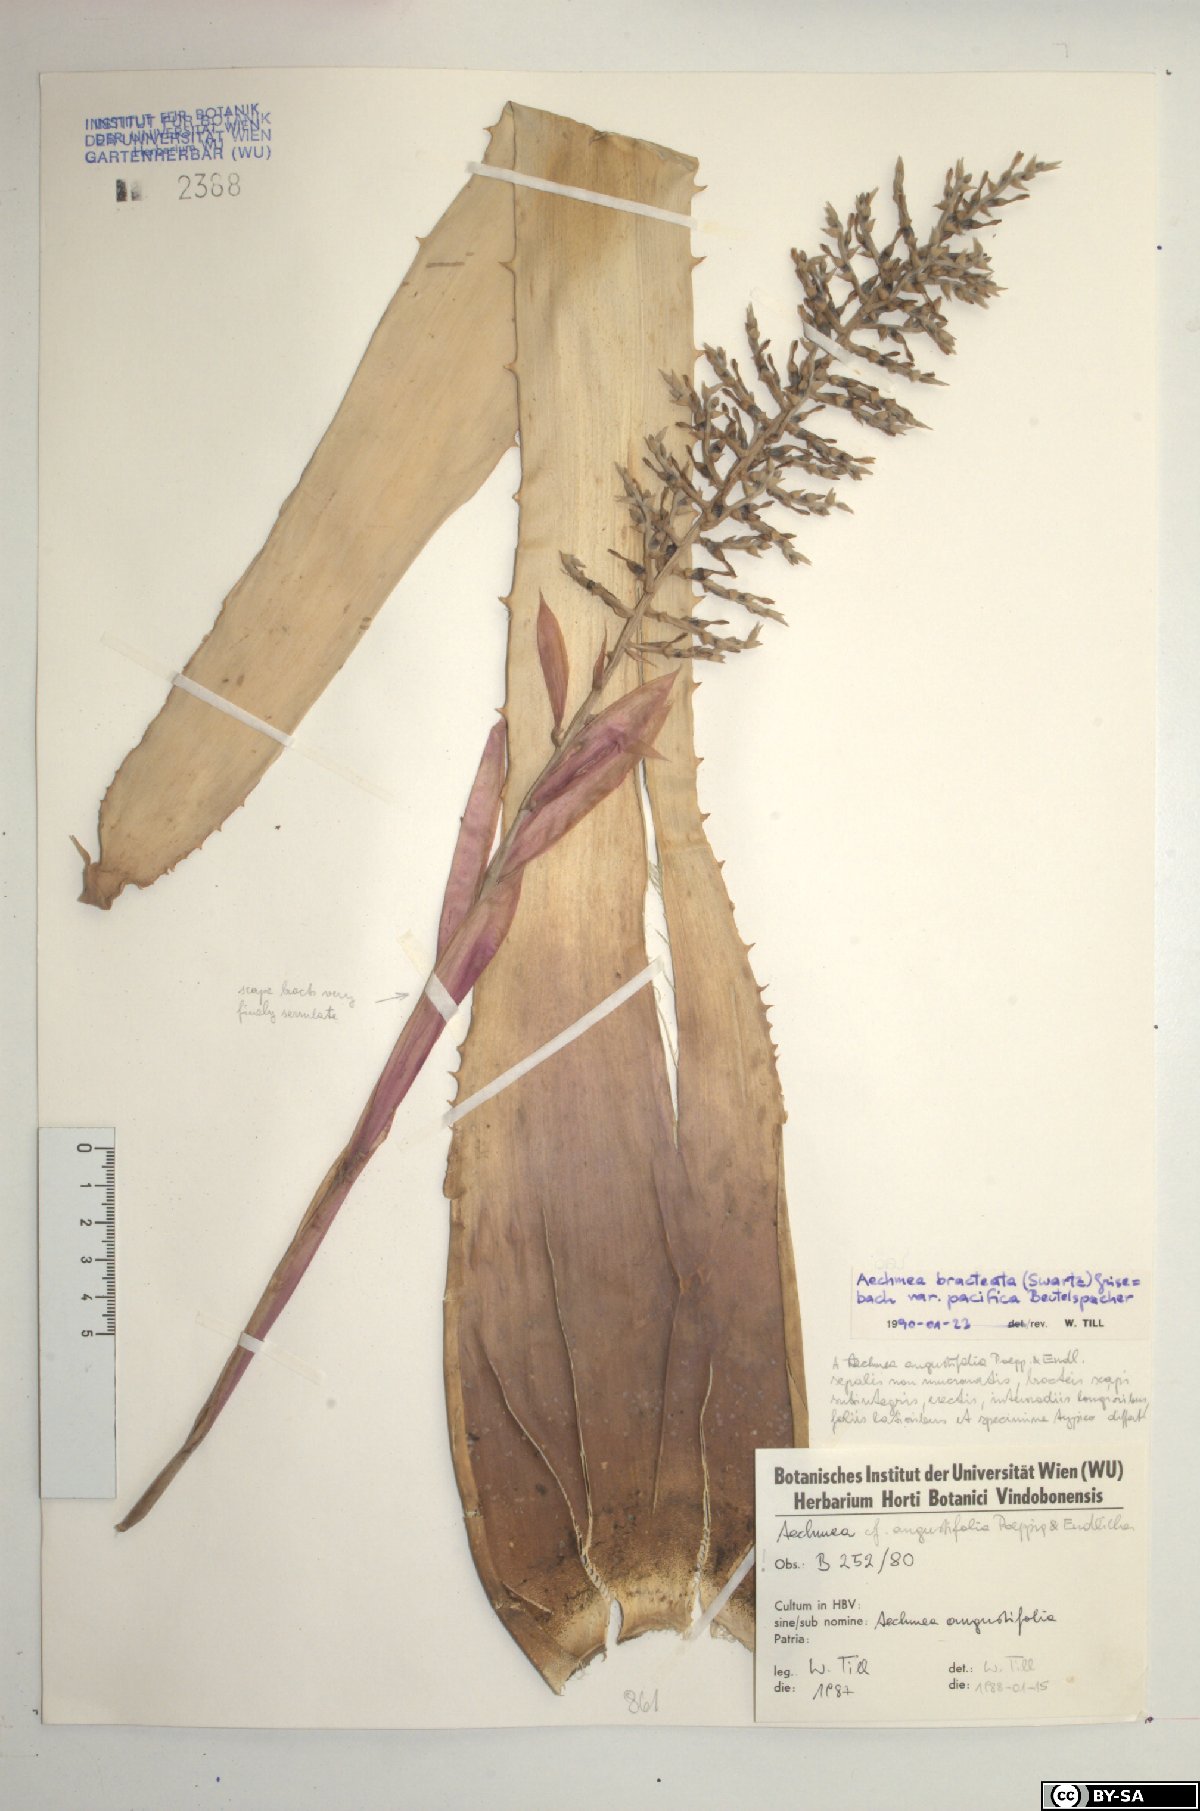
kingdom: Plantae
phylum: Tracheophyta
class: Liliopsida
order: Poales
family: Bromeliaceae
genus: Aechmea
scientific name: Aechmea bracteata
